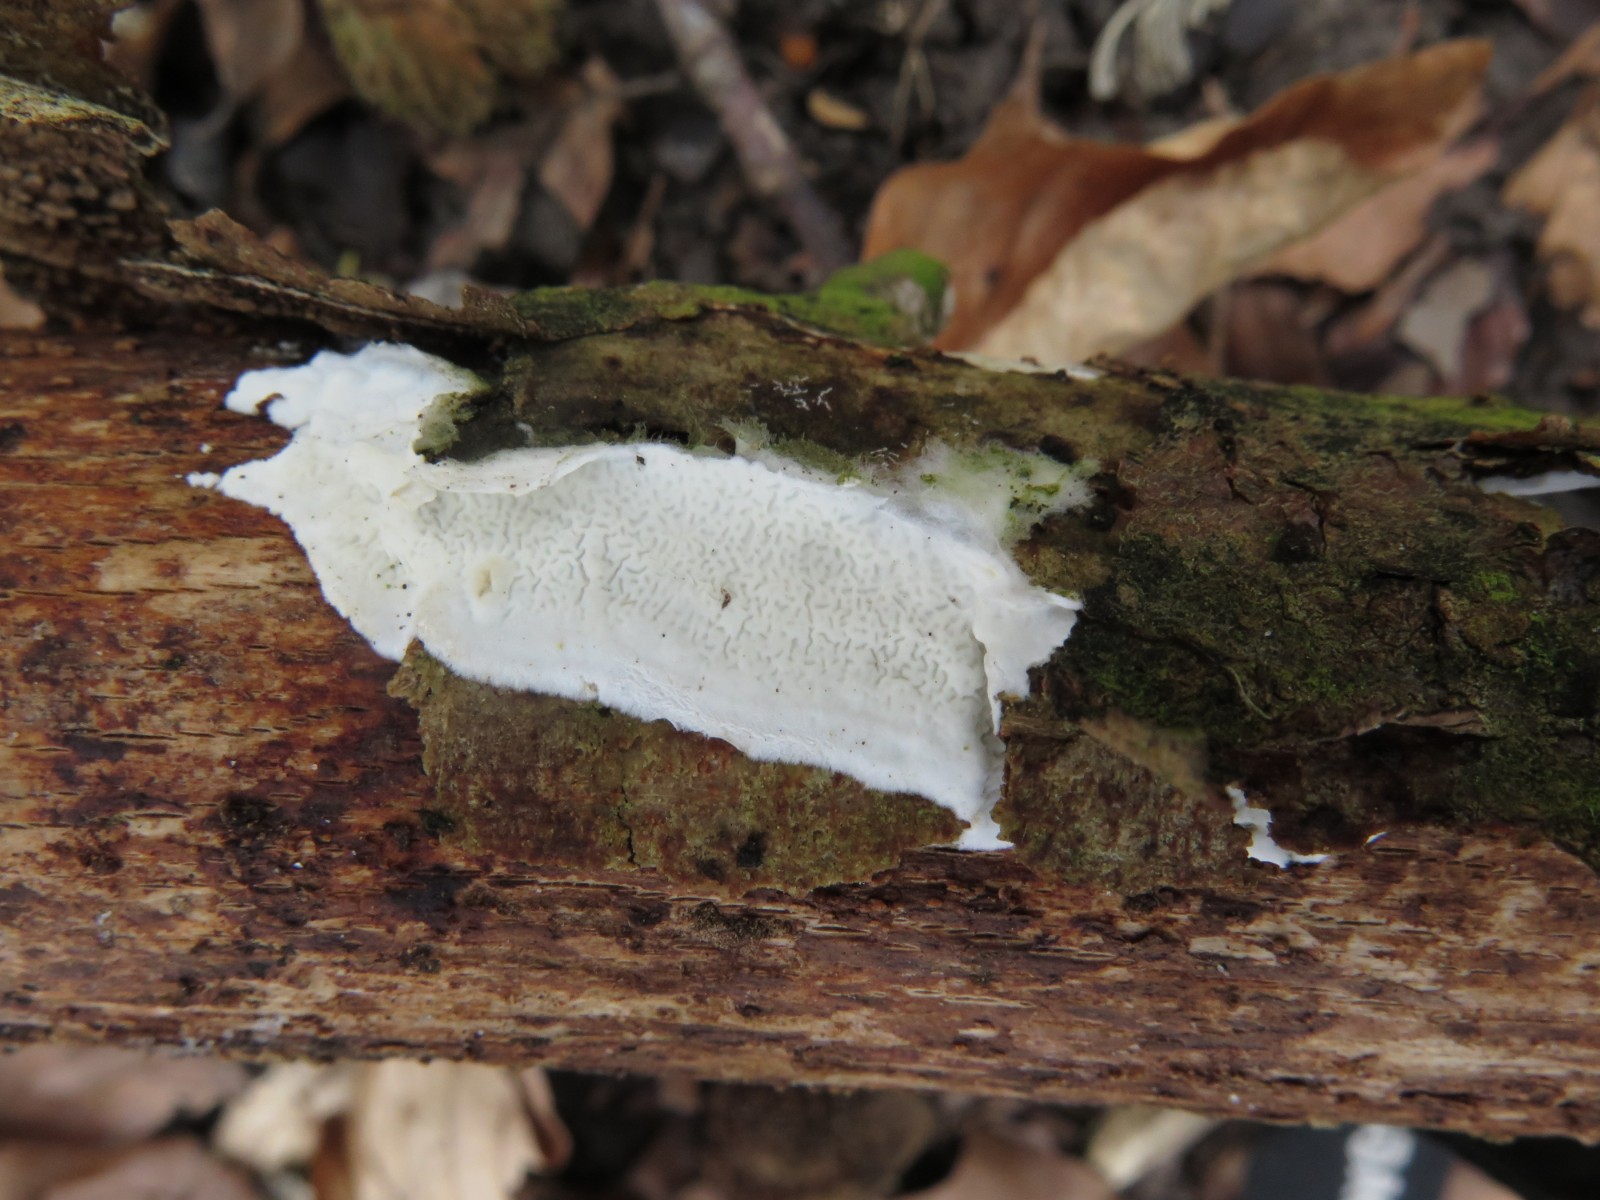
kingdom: Fungi
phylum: Basidiomycota
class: Agaricomycetes
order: Polyporales
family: Irpicaceae
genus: Byssomerulius
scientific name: Byssomerulius corium
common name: læder-åresvamp
